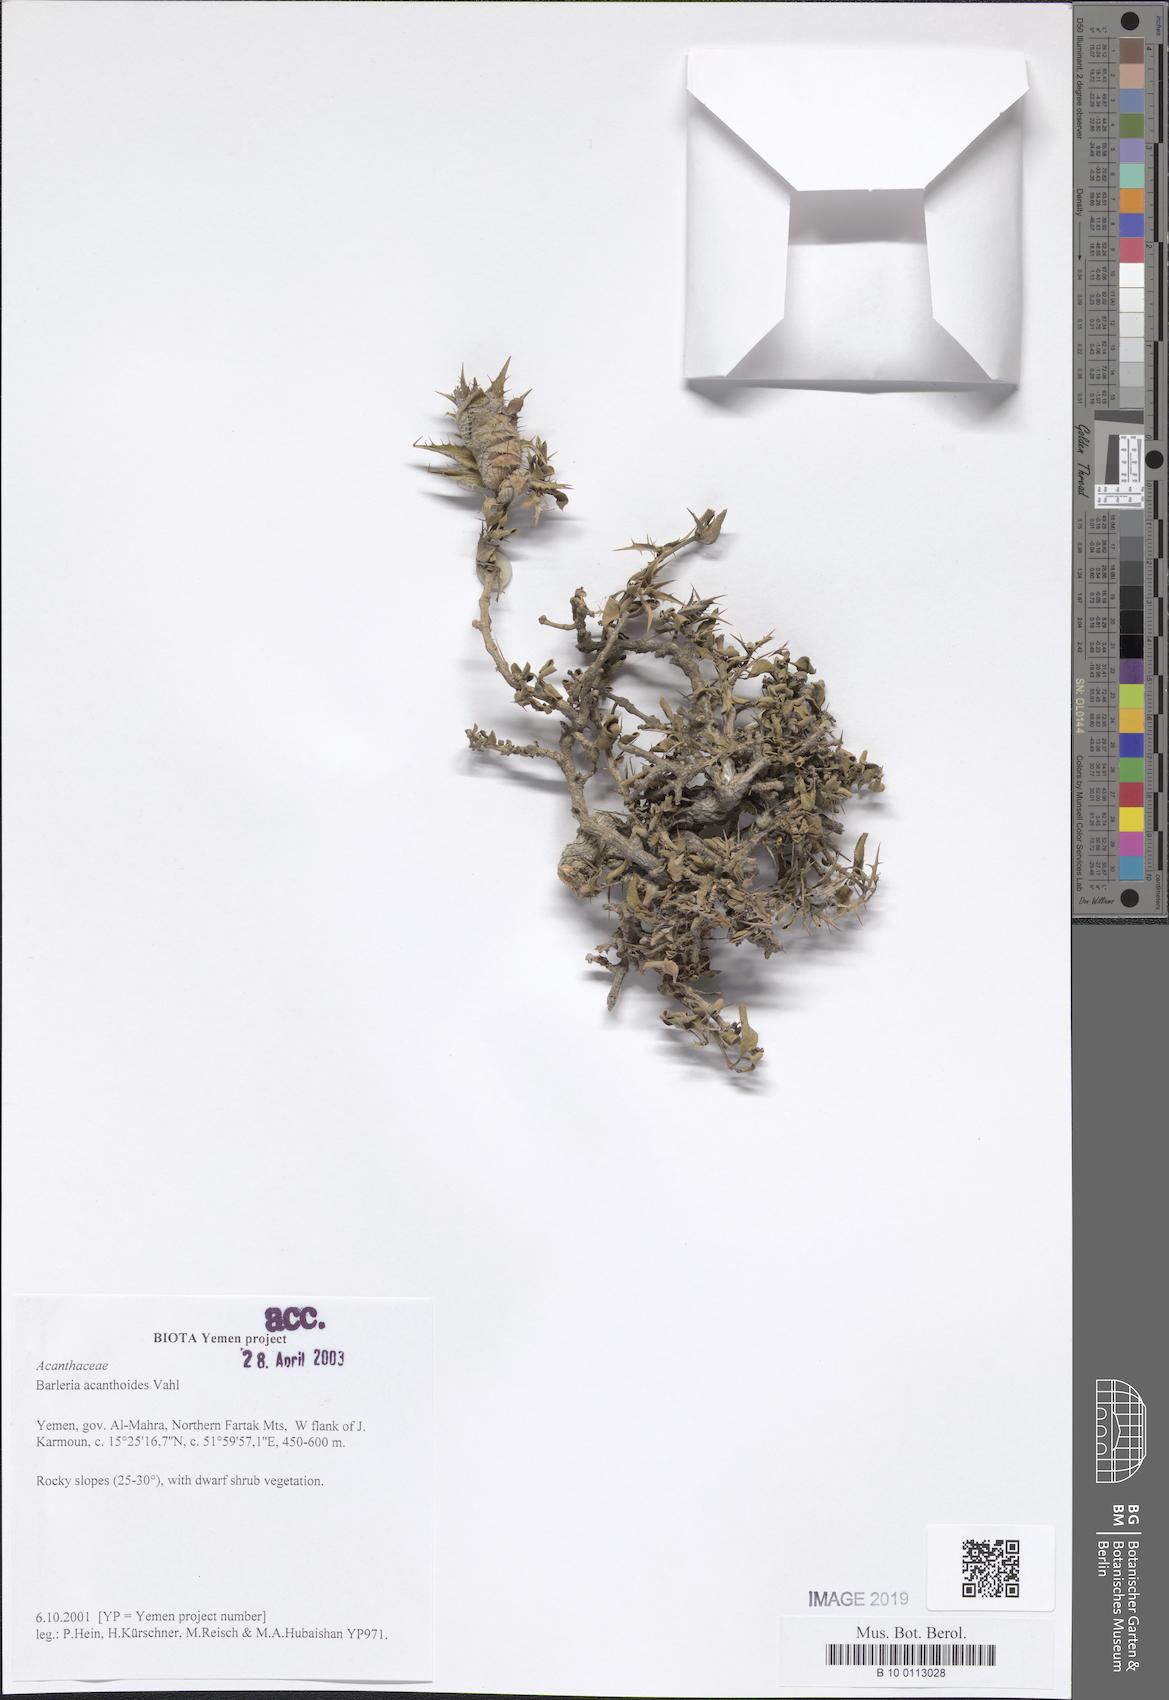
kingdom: Plantae
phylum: Tracheophyta
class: Magnoliopsida
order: Lamiales
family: Acanthaceae
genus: Barleria
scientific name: Barleria acanthoides
